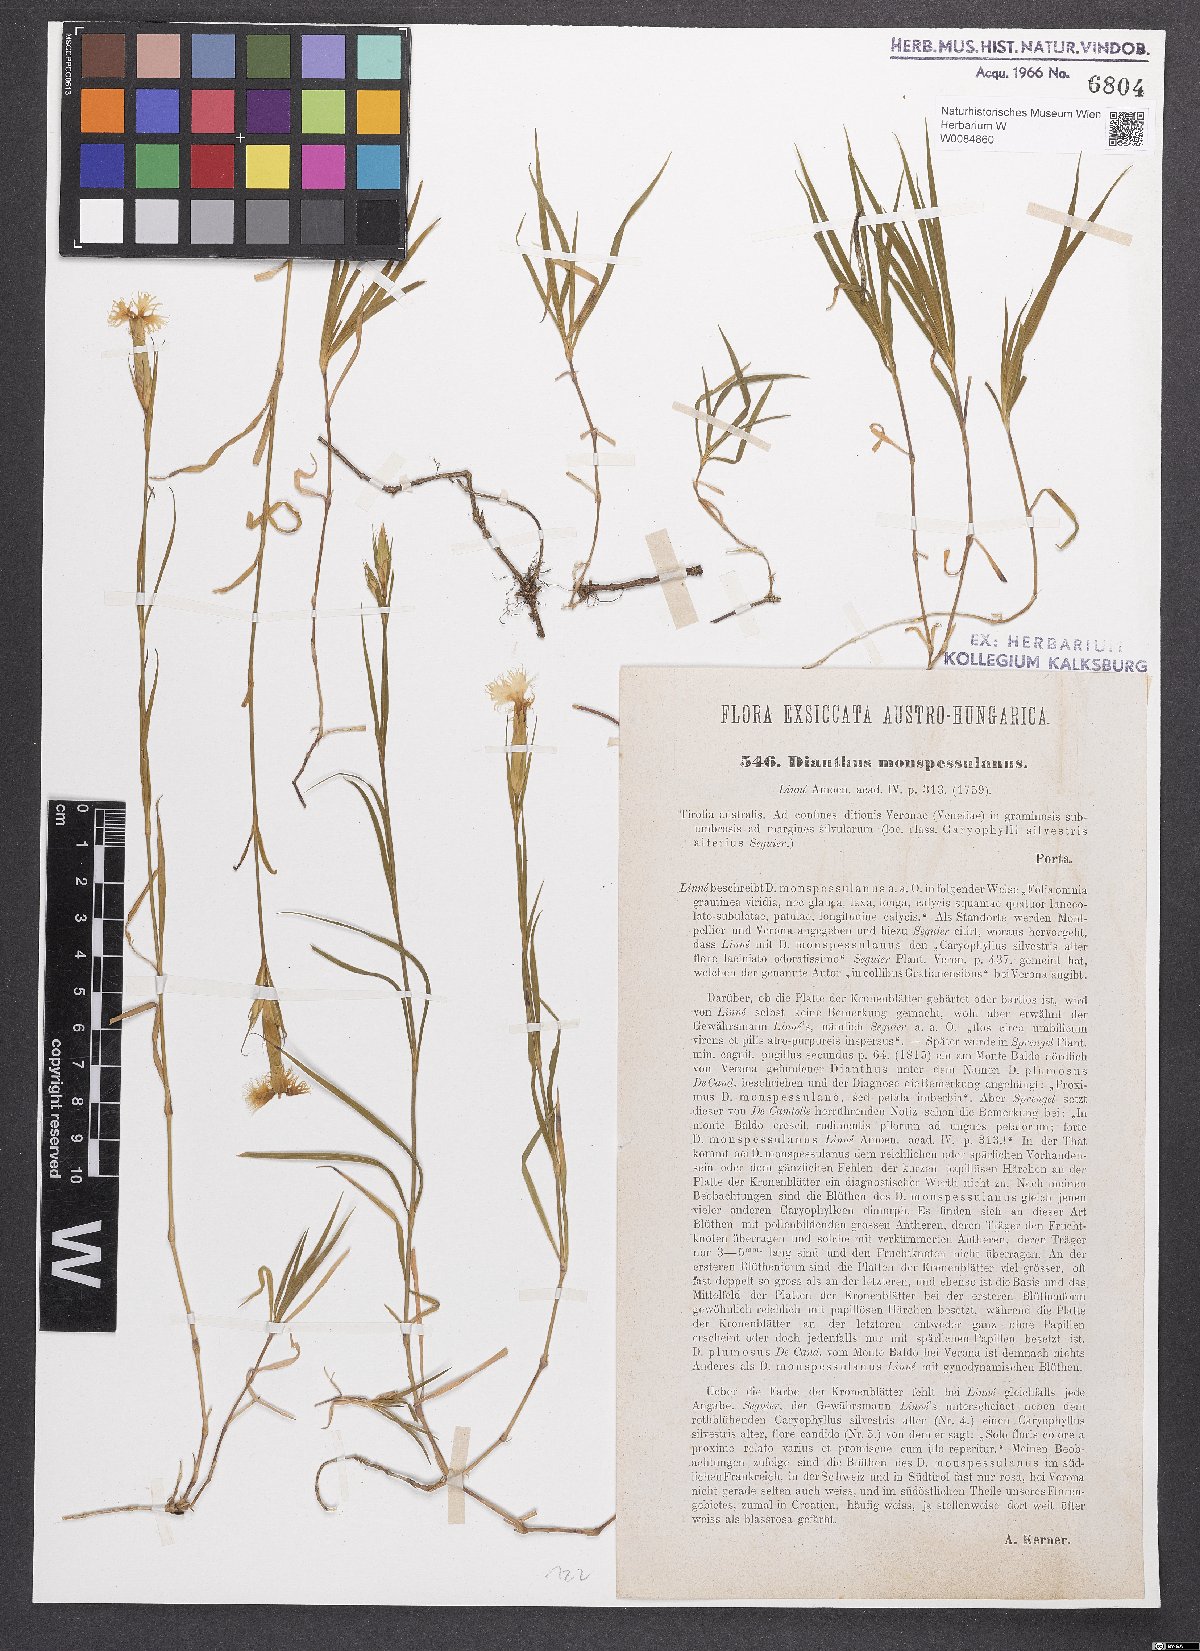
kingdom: Plantae
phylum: Tracheophyta
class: Magnoliopsida
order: Caryophyllales
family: Caryophyllaceae
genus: Dianthus
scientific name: Dianthus hyssopifolius
